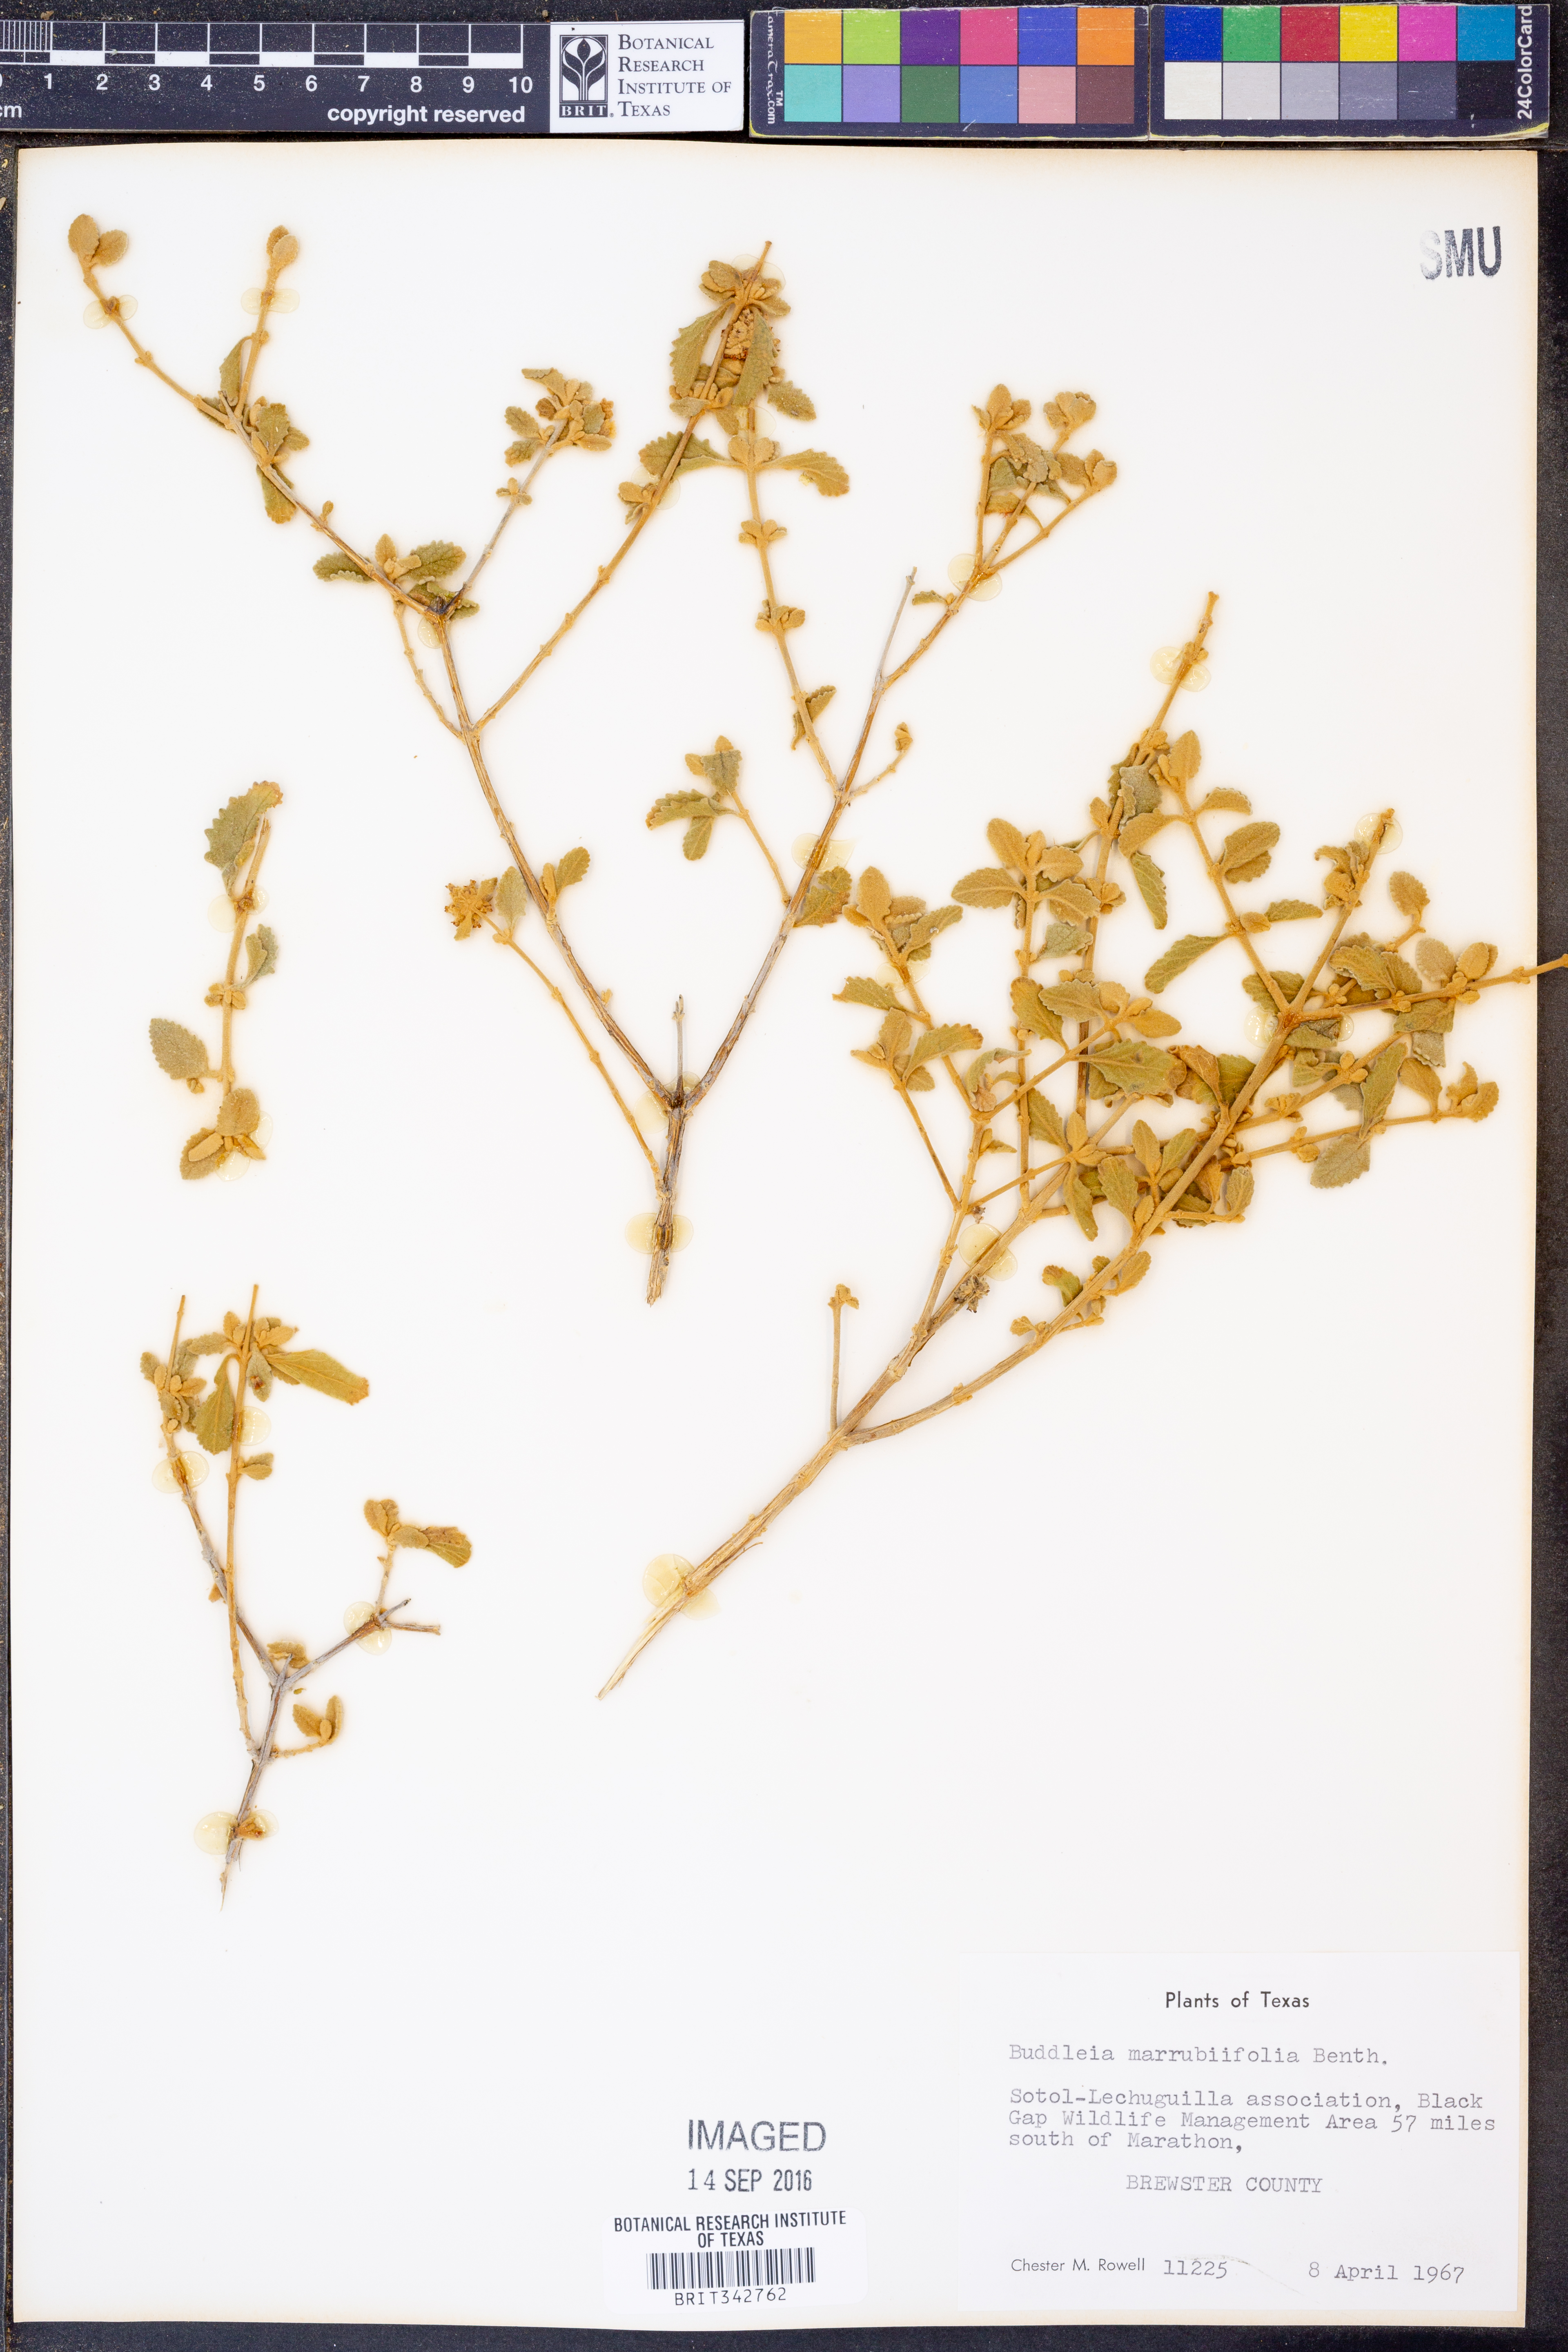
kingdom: Plantae
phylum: Tracheophyta
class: Magnoliopsida
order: Lamiales
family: Scrophulariaceae
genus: Buddleja
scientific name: Buddleja marrubiifolia
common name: Woolly butterfly-bush
